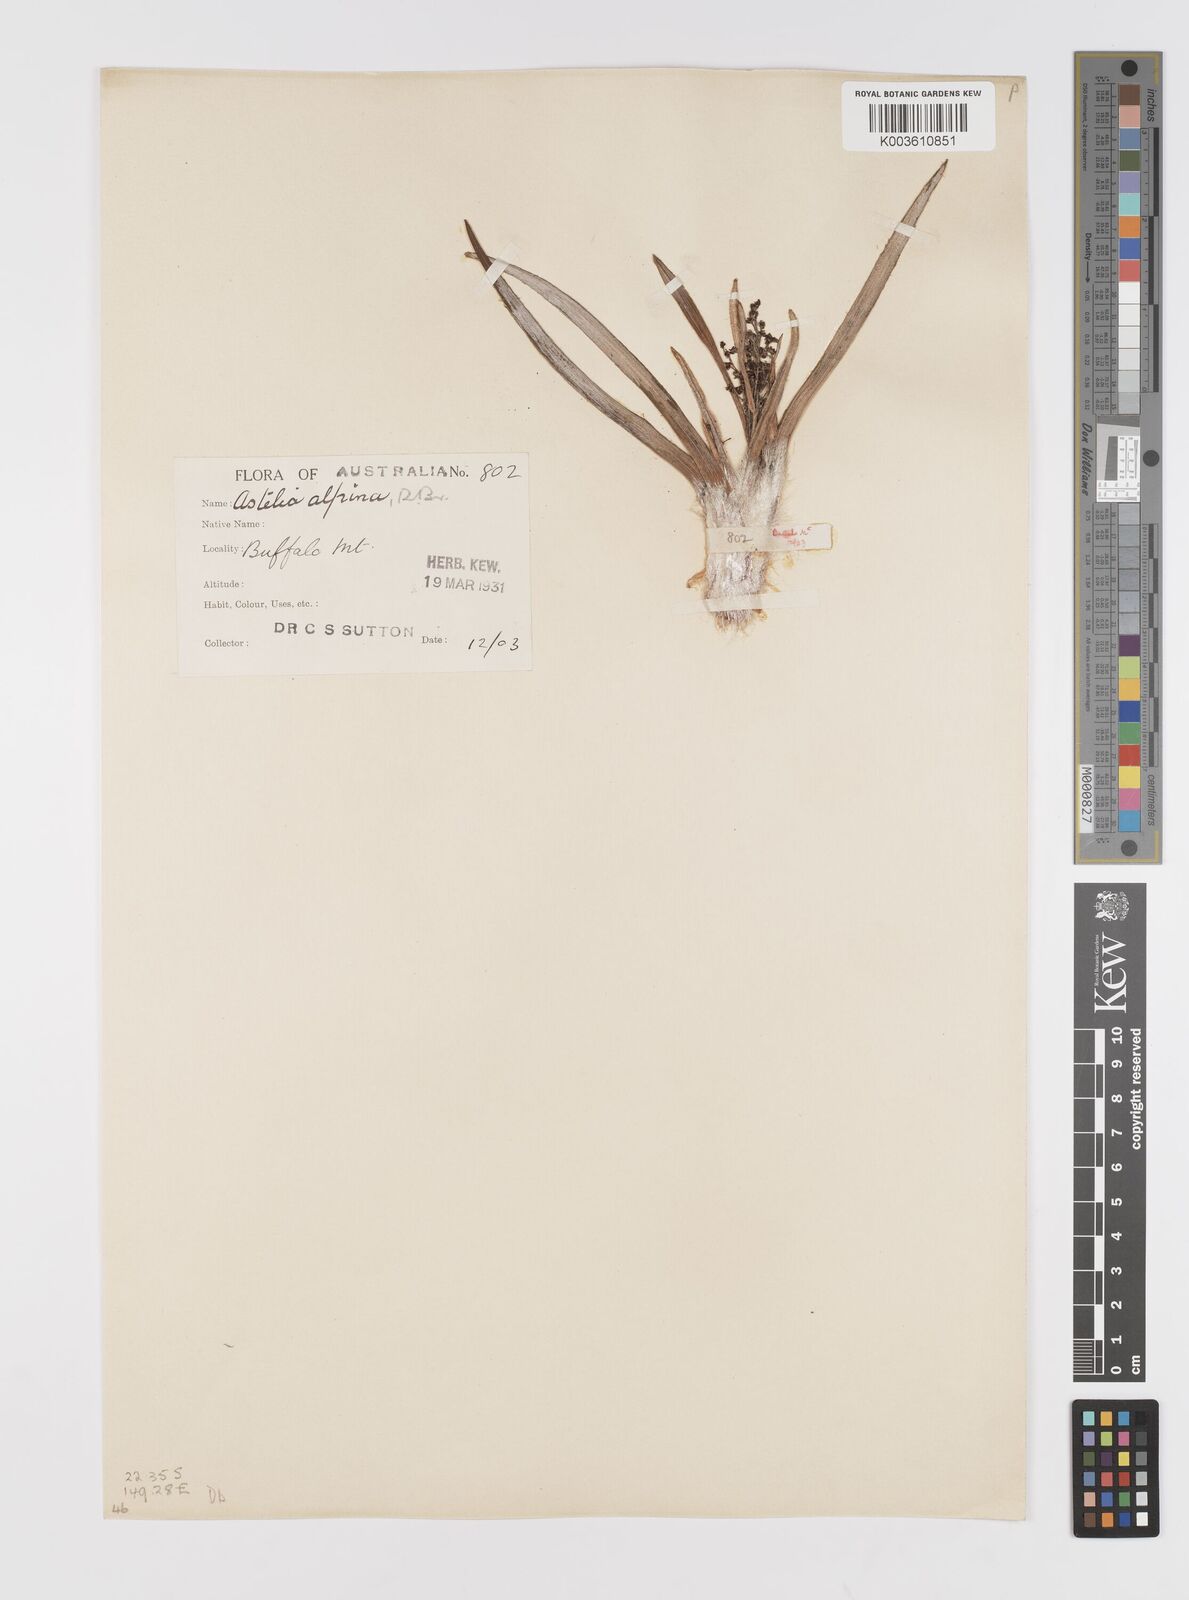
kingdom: Plantae
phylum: Tracheophyta
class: Liliopsida
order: Asparagales
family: Asteliaceae
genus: Astelia
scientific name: Astelia alpina
